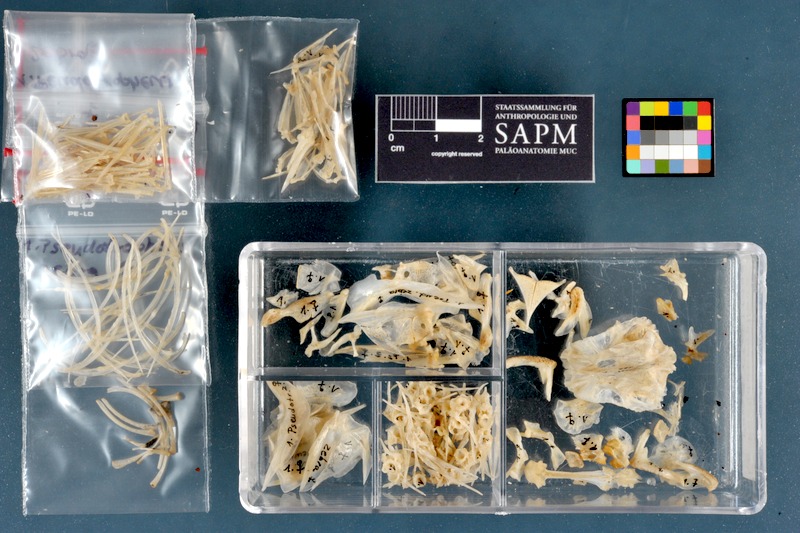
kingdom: Animalia
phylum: Chordata
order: Perciformes
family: Cichlidae
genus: Maylandia
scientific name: Maylandia zebra
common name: Zebra mbuna
